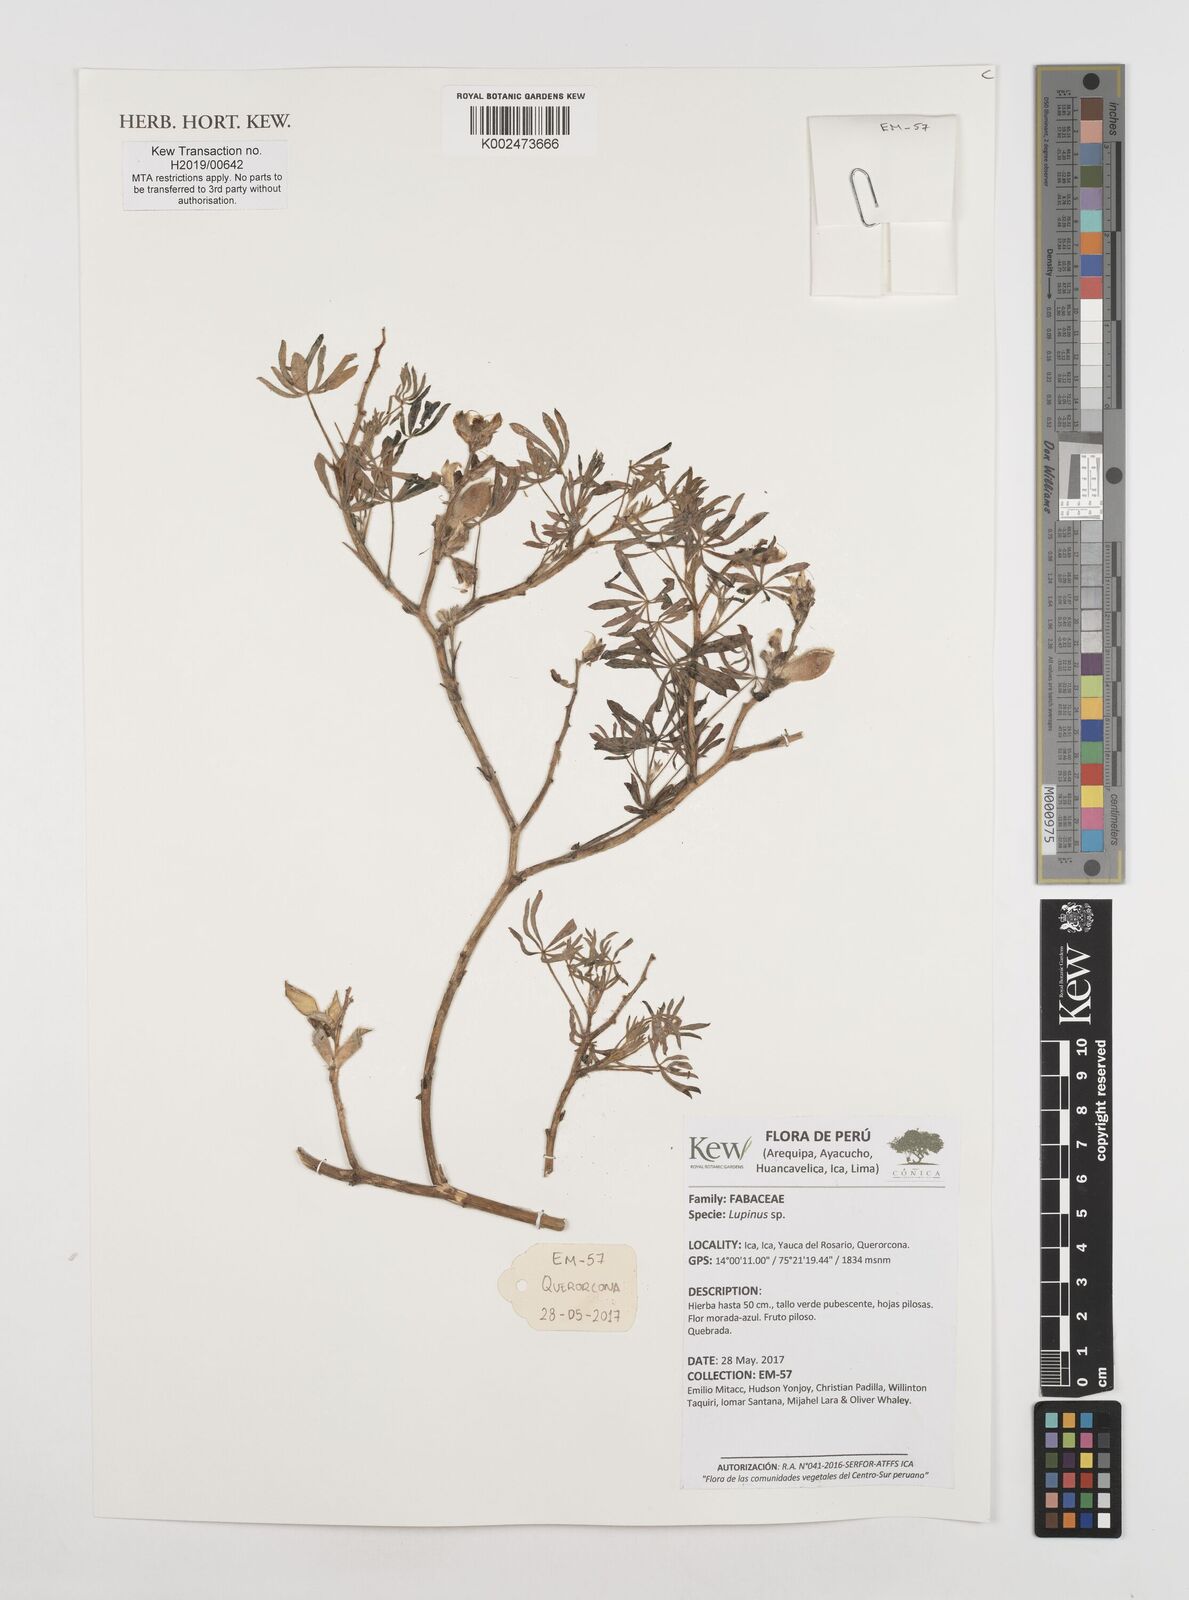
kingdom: Plantae
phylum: Tracheophyta
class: Magnoliopsida
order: Fabales
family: Fabaceae
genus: Lupinus
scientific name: Lupinus
